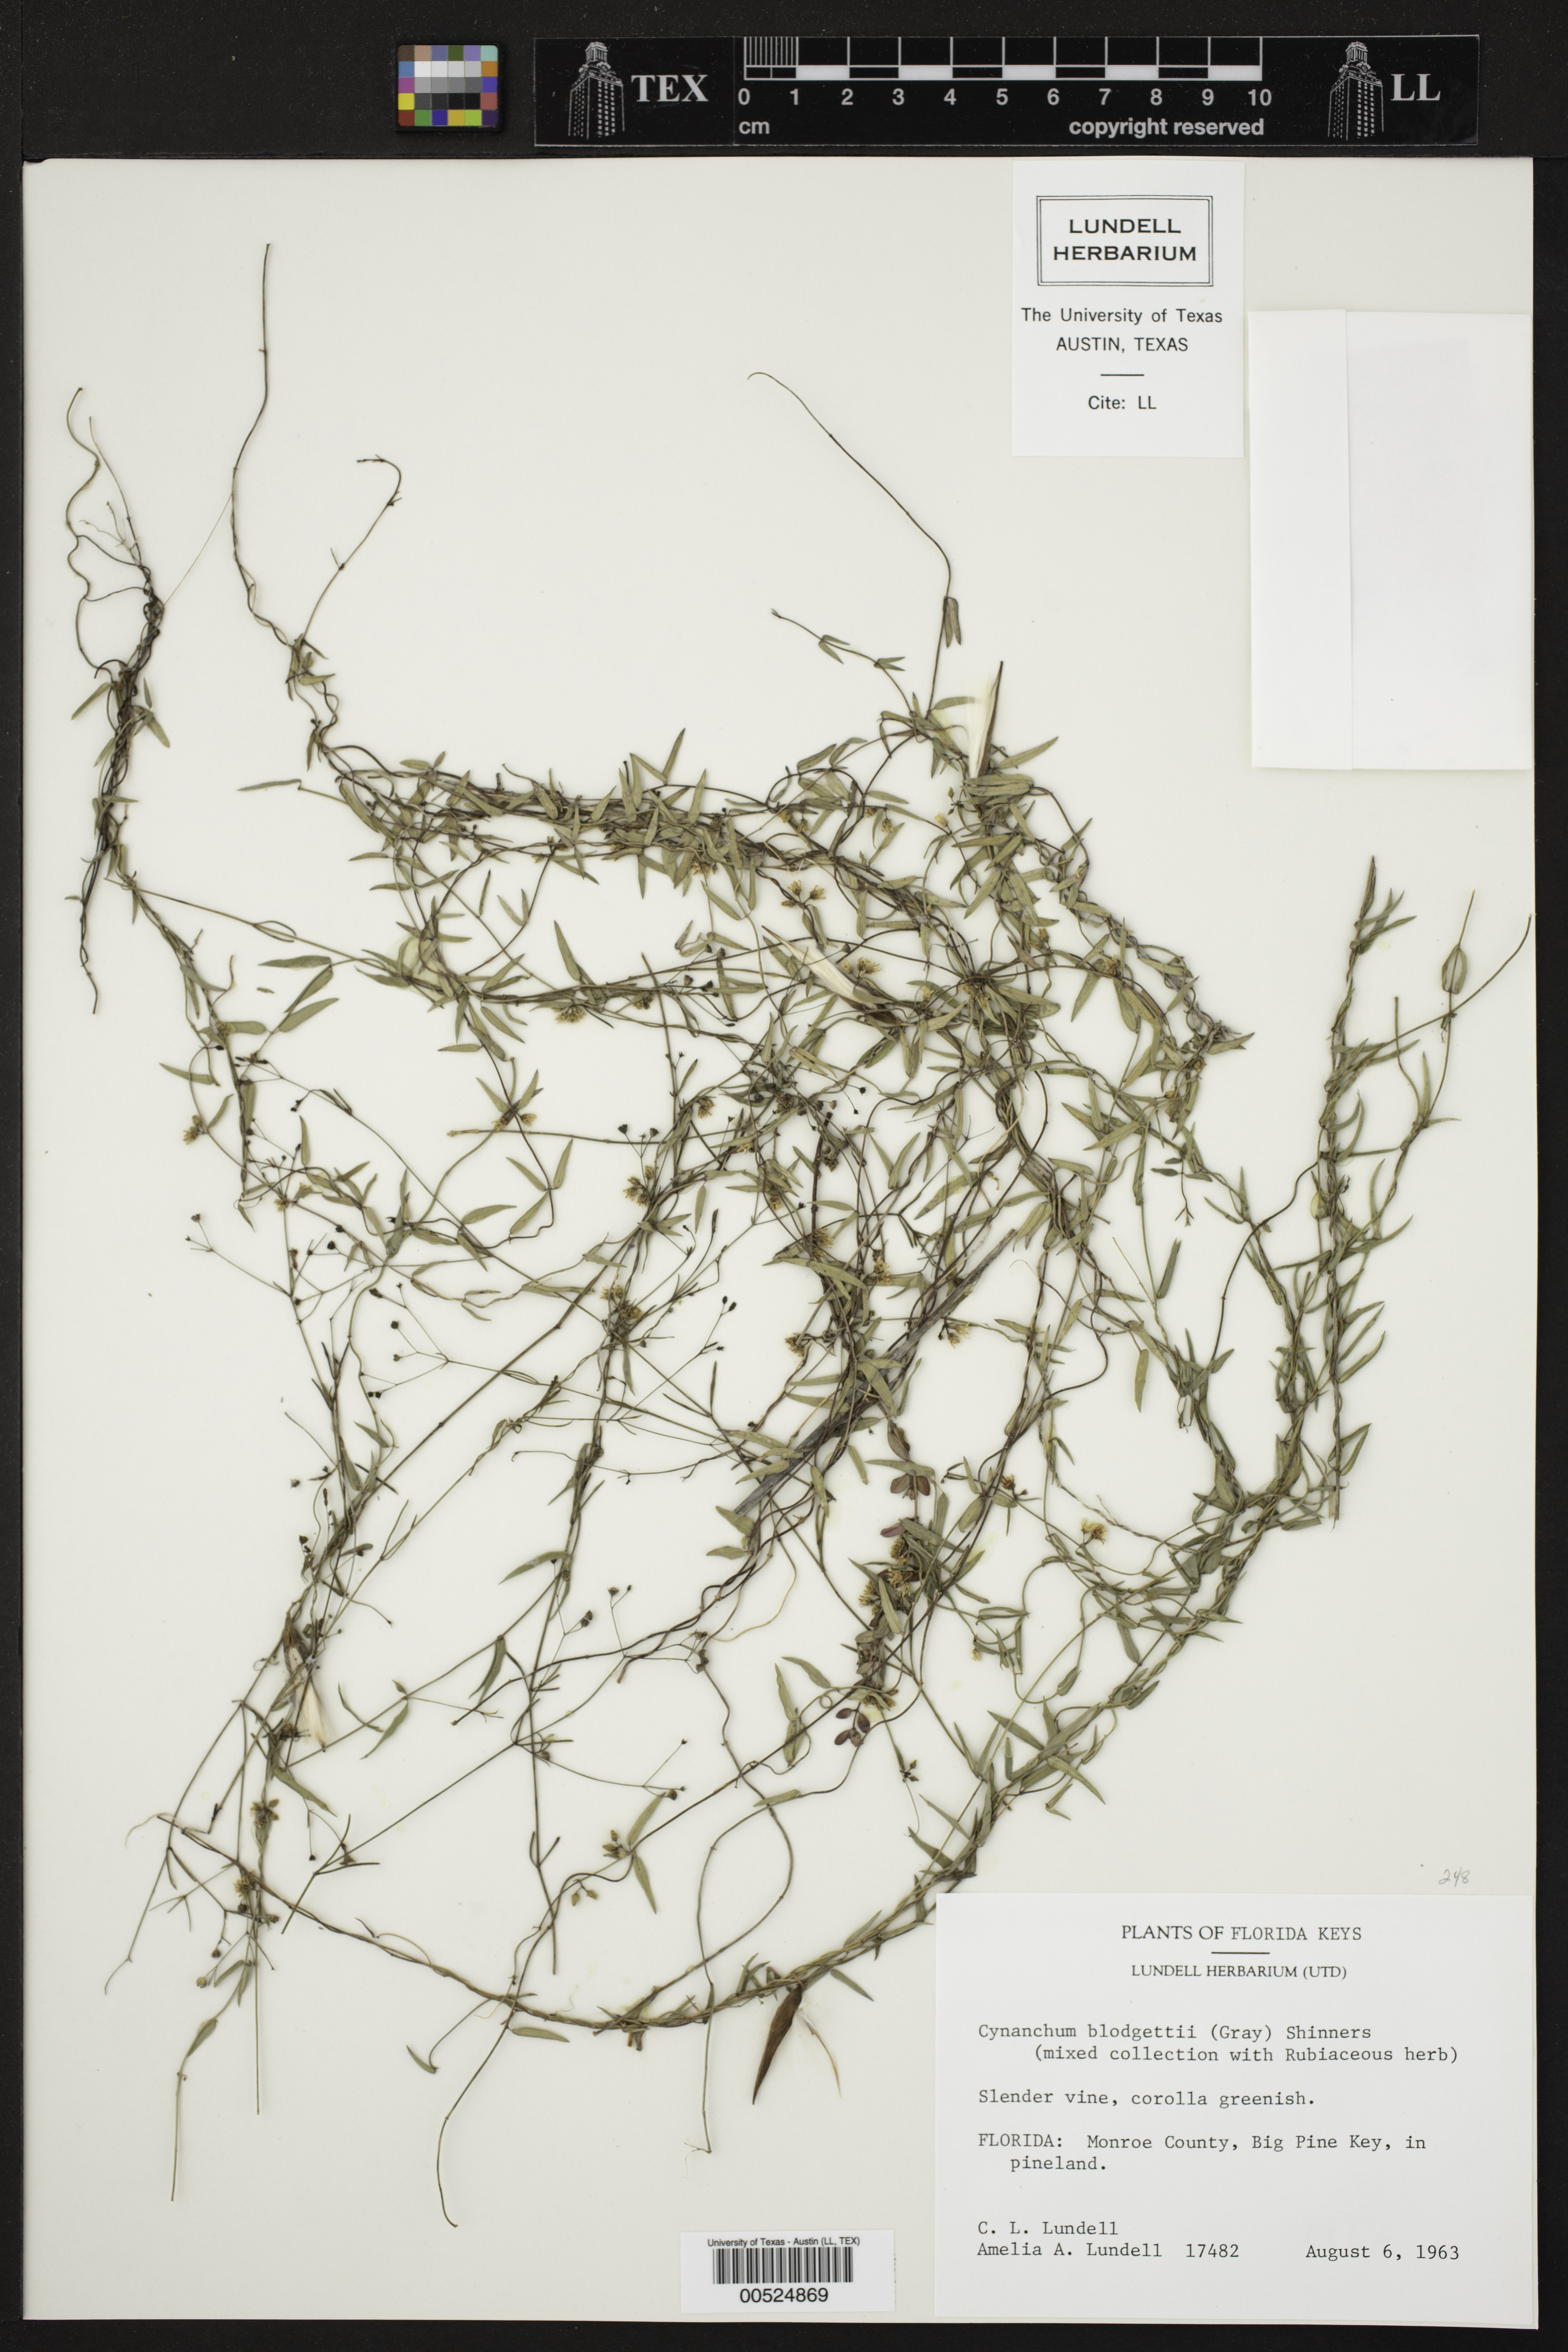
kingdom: Plantae
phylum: Tracheophyta
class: Magnoliopsida
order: Gentianales
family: Apocynaceae
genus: Metastelma
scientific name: Metastelma blodgettii
